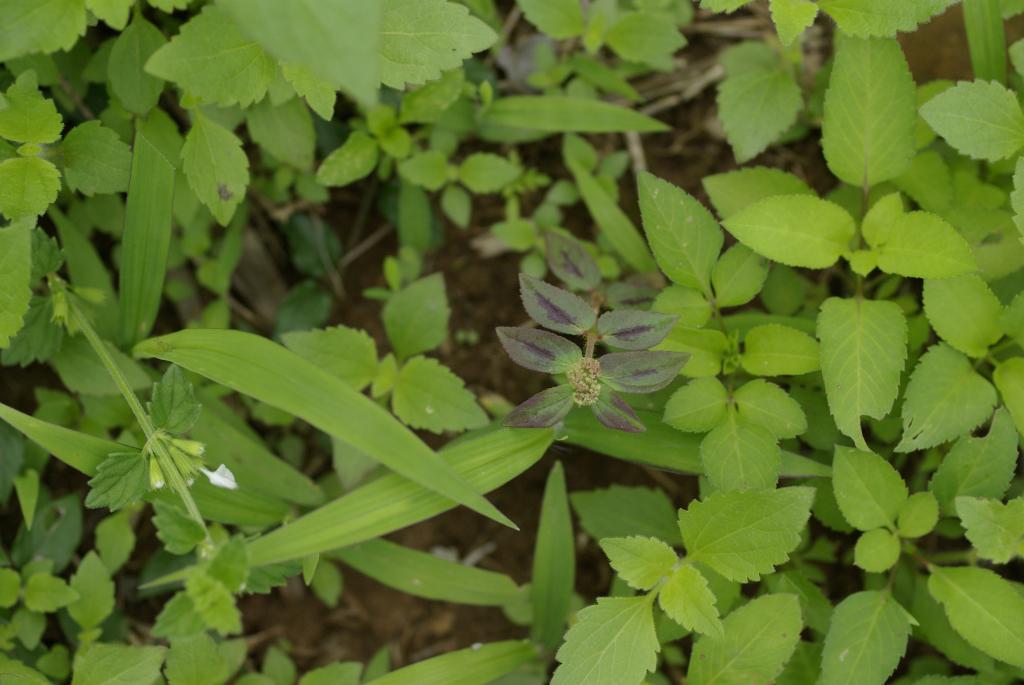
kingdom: Plantae
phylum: Tracheophyta
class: Magnoliopsida
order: Malpighiales
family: Euphorbiaceae
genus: Euphorbia
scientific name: Euphorbia hirta
